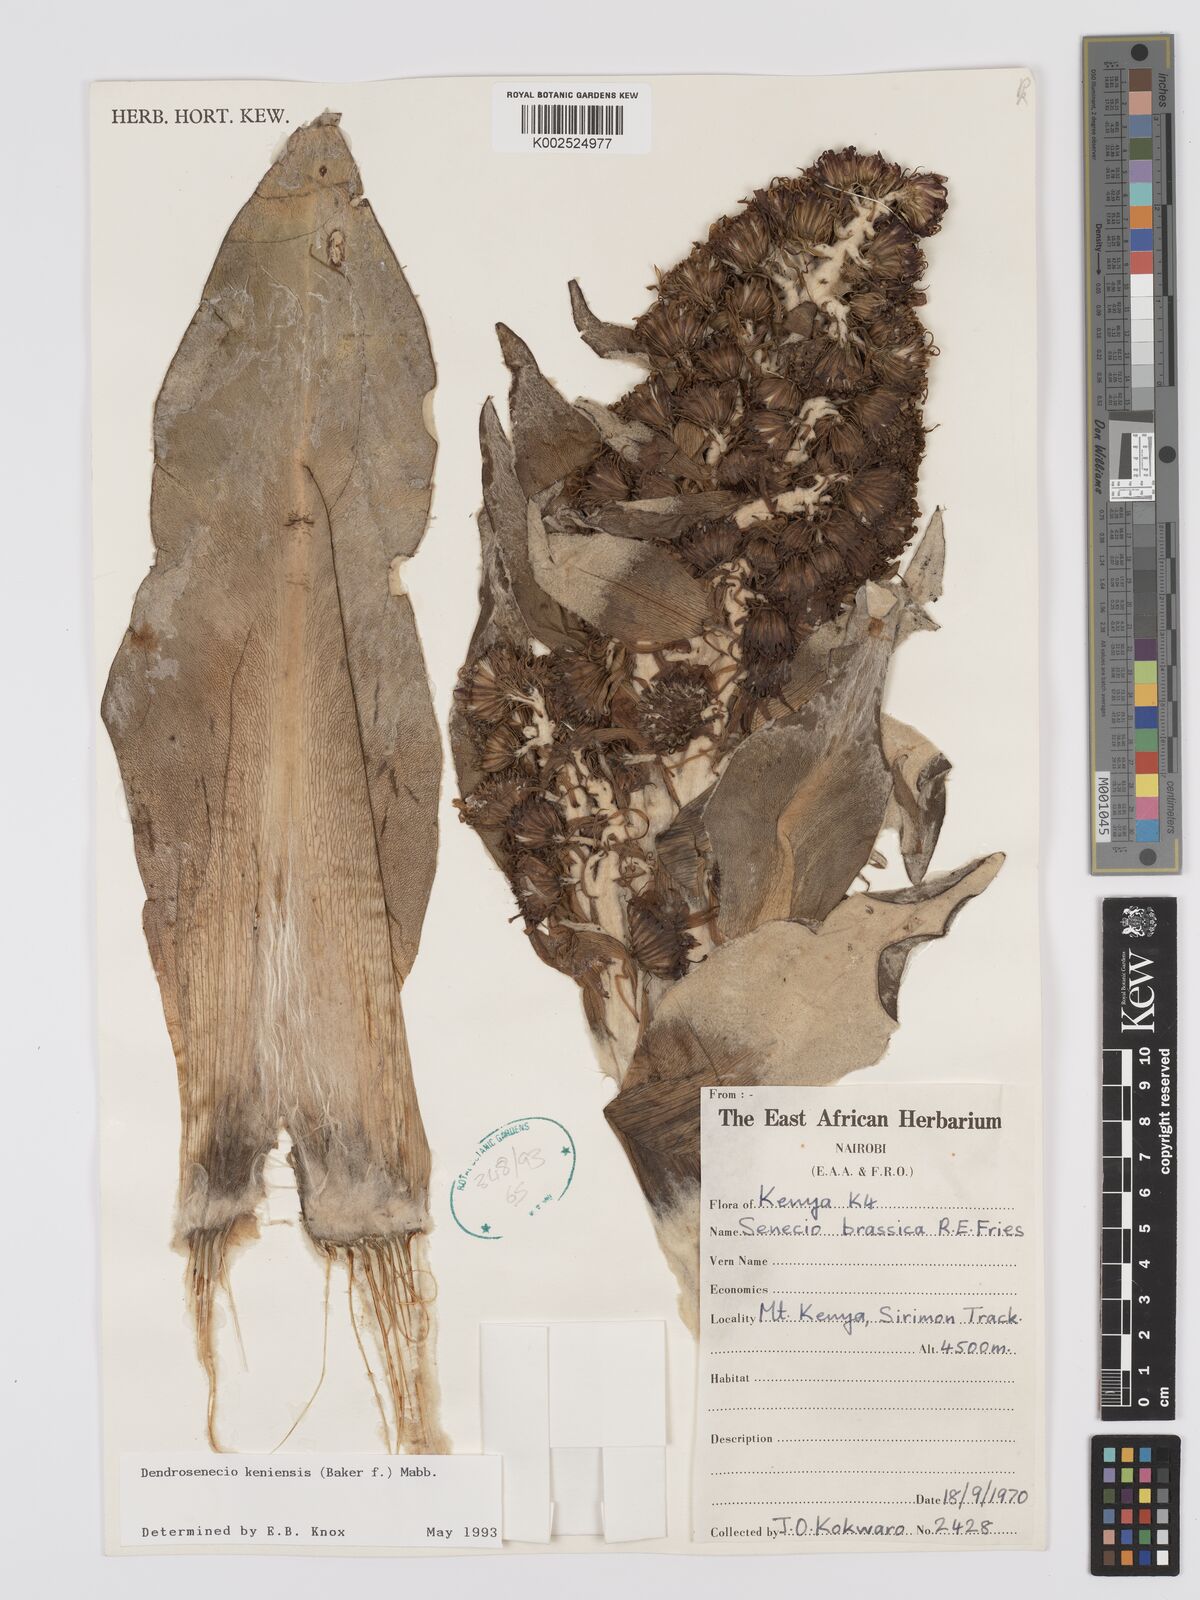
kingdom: Plantae
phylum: Tracheophyta
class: Magnoliopsida
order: Asterales
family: Asteraceae
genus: Dendrosenecio
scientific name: Dendrosenecio keniensis
